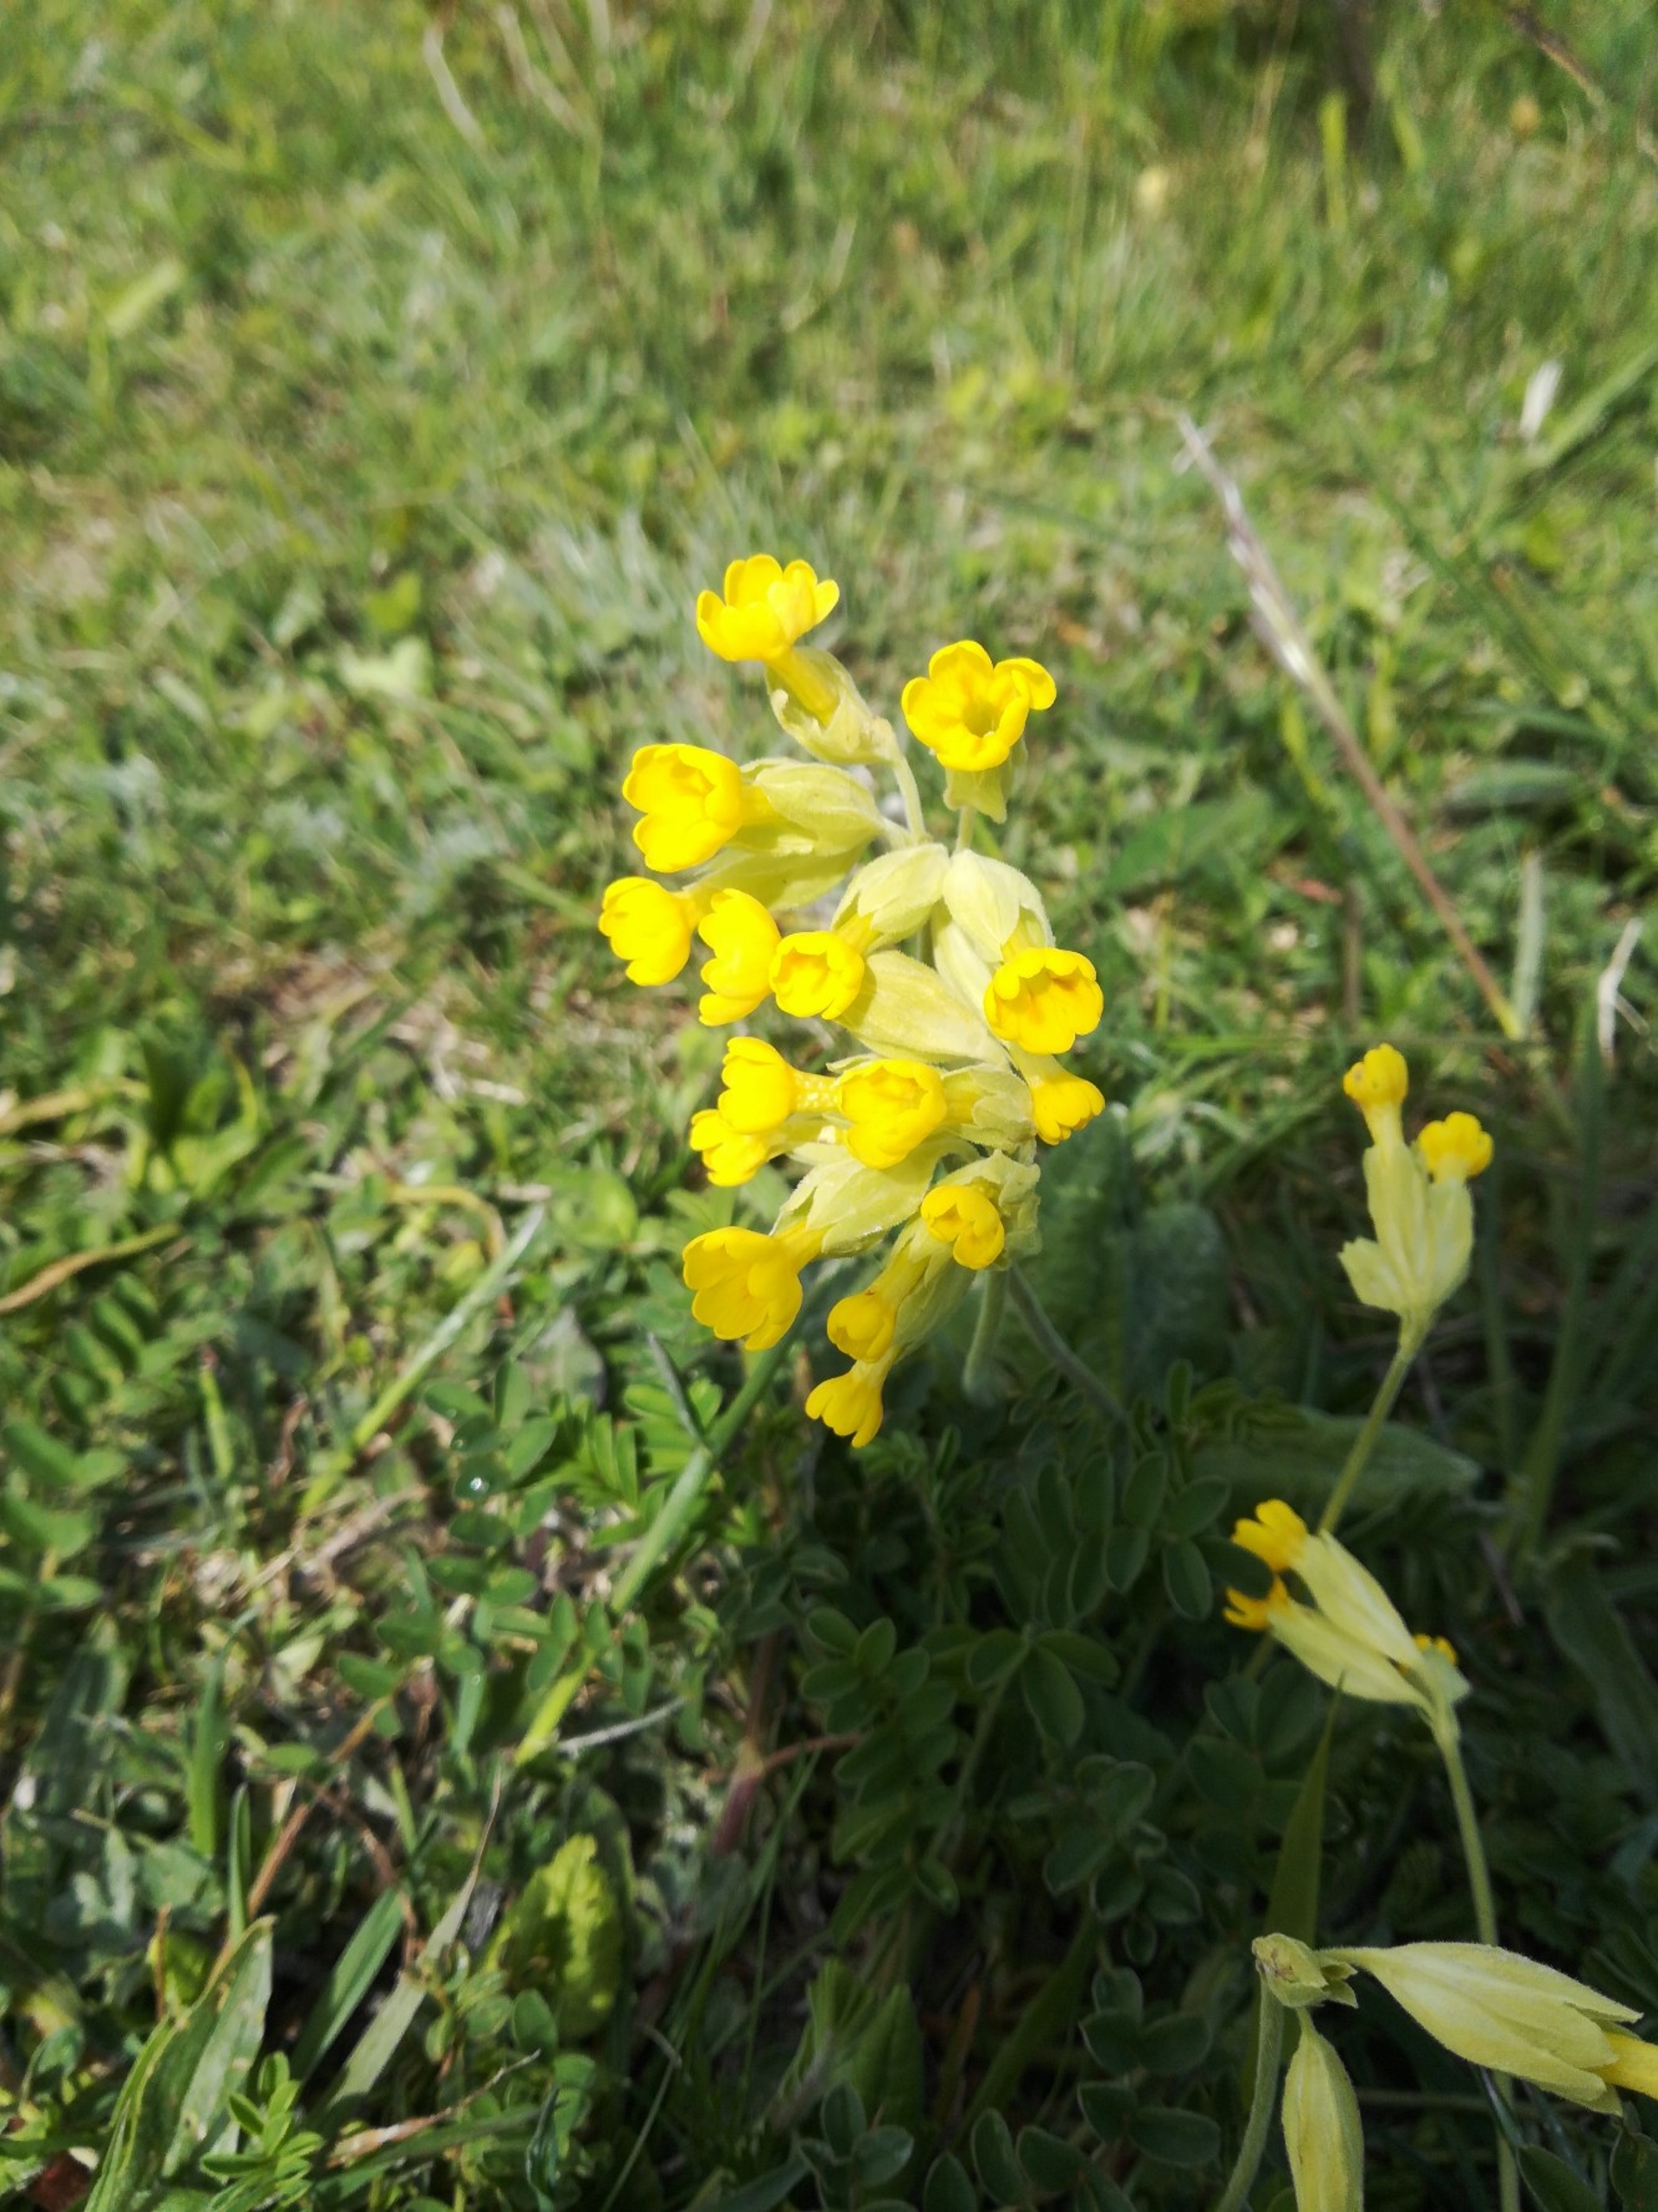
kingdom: Plantae
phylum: Tracheophyta
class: Magnoliopsida
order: Ericales
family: Primulaceae
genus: Primula
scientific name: Primula veris
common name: Hulkravet kodriver
